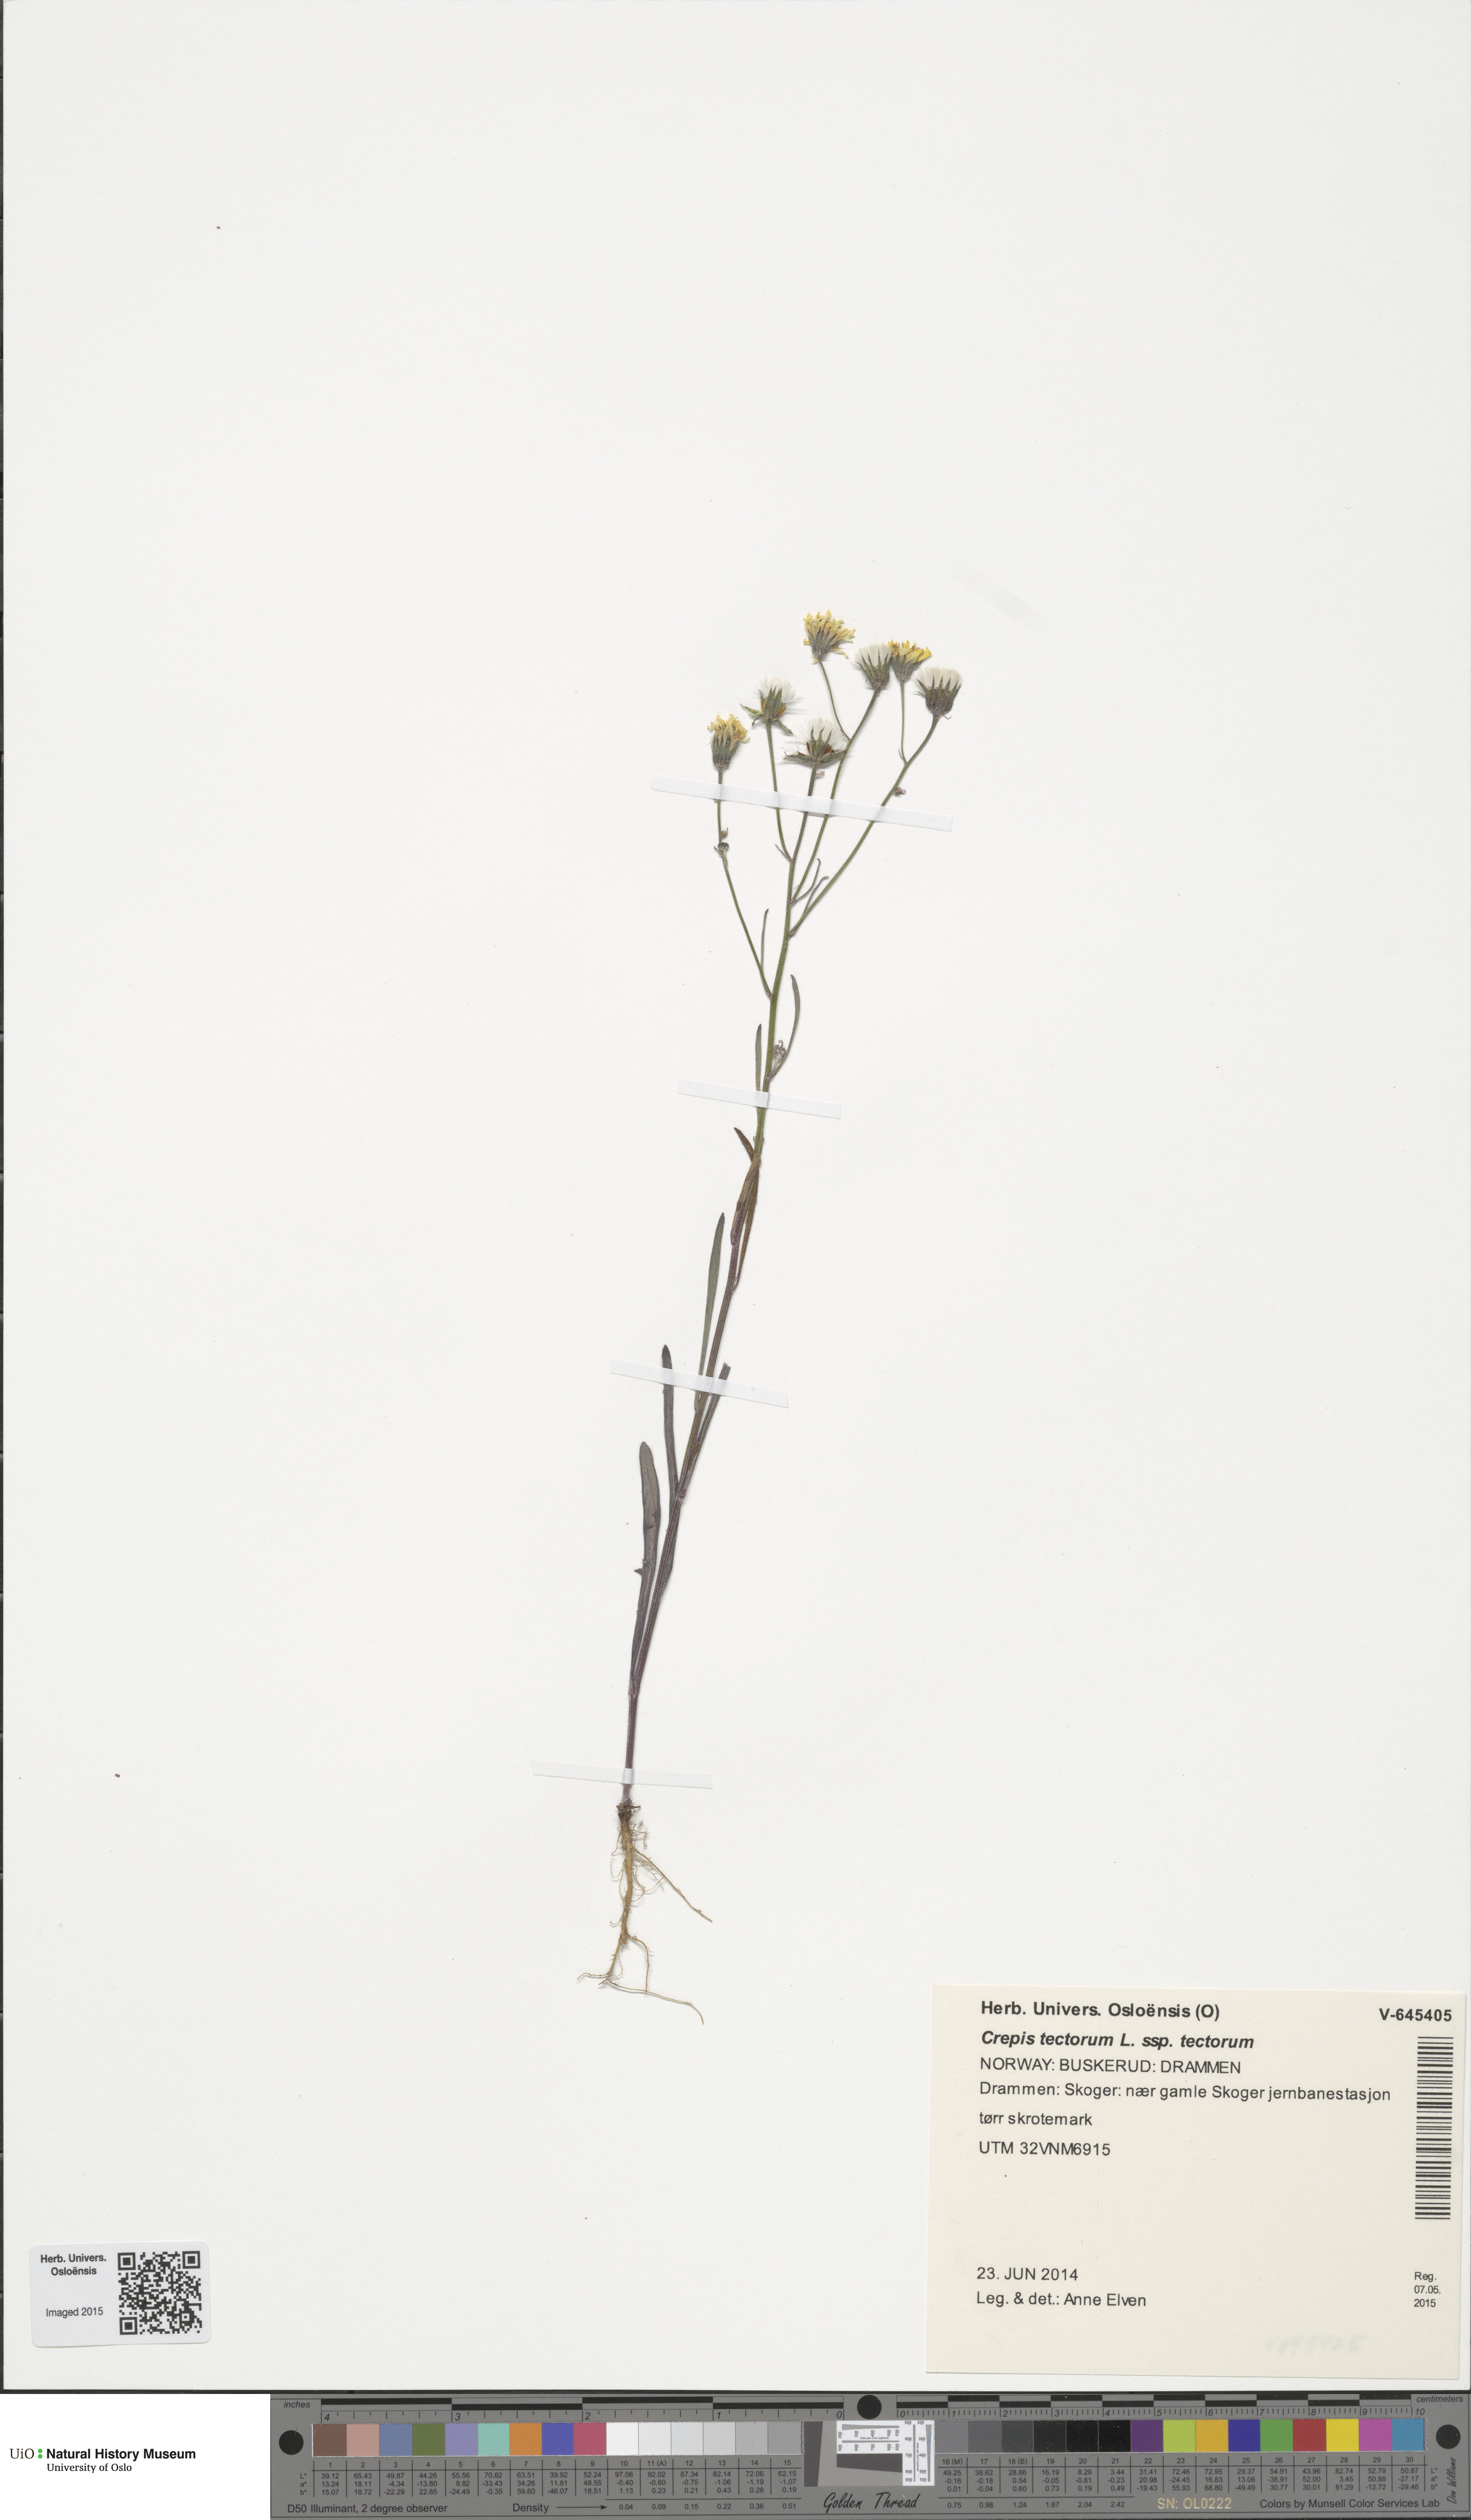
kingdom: Plantae
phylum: Tracheophyta
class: Magnoliopsida
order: Asterales
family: Asteraceae
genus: Crepis
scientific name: Crepis tectorum
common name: Narrow-leaved hawk's-beard
